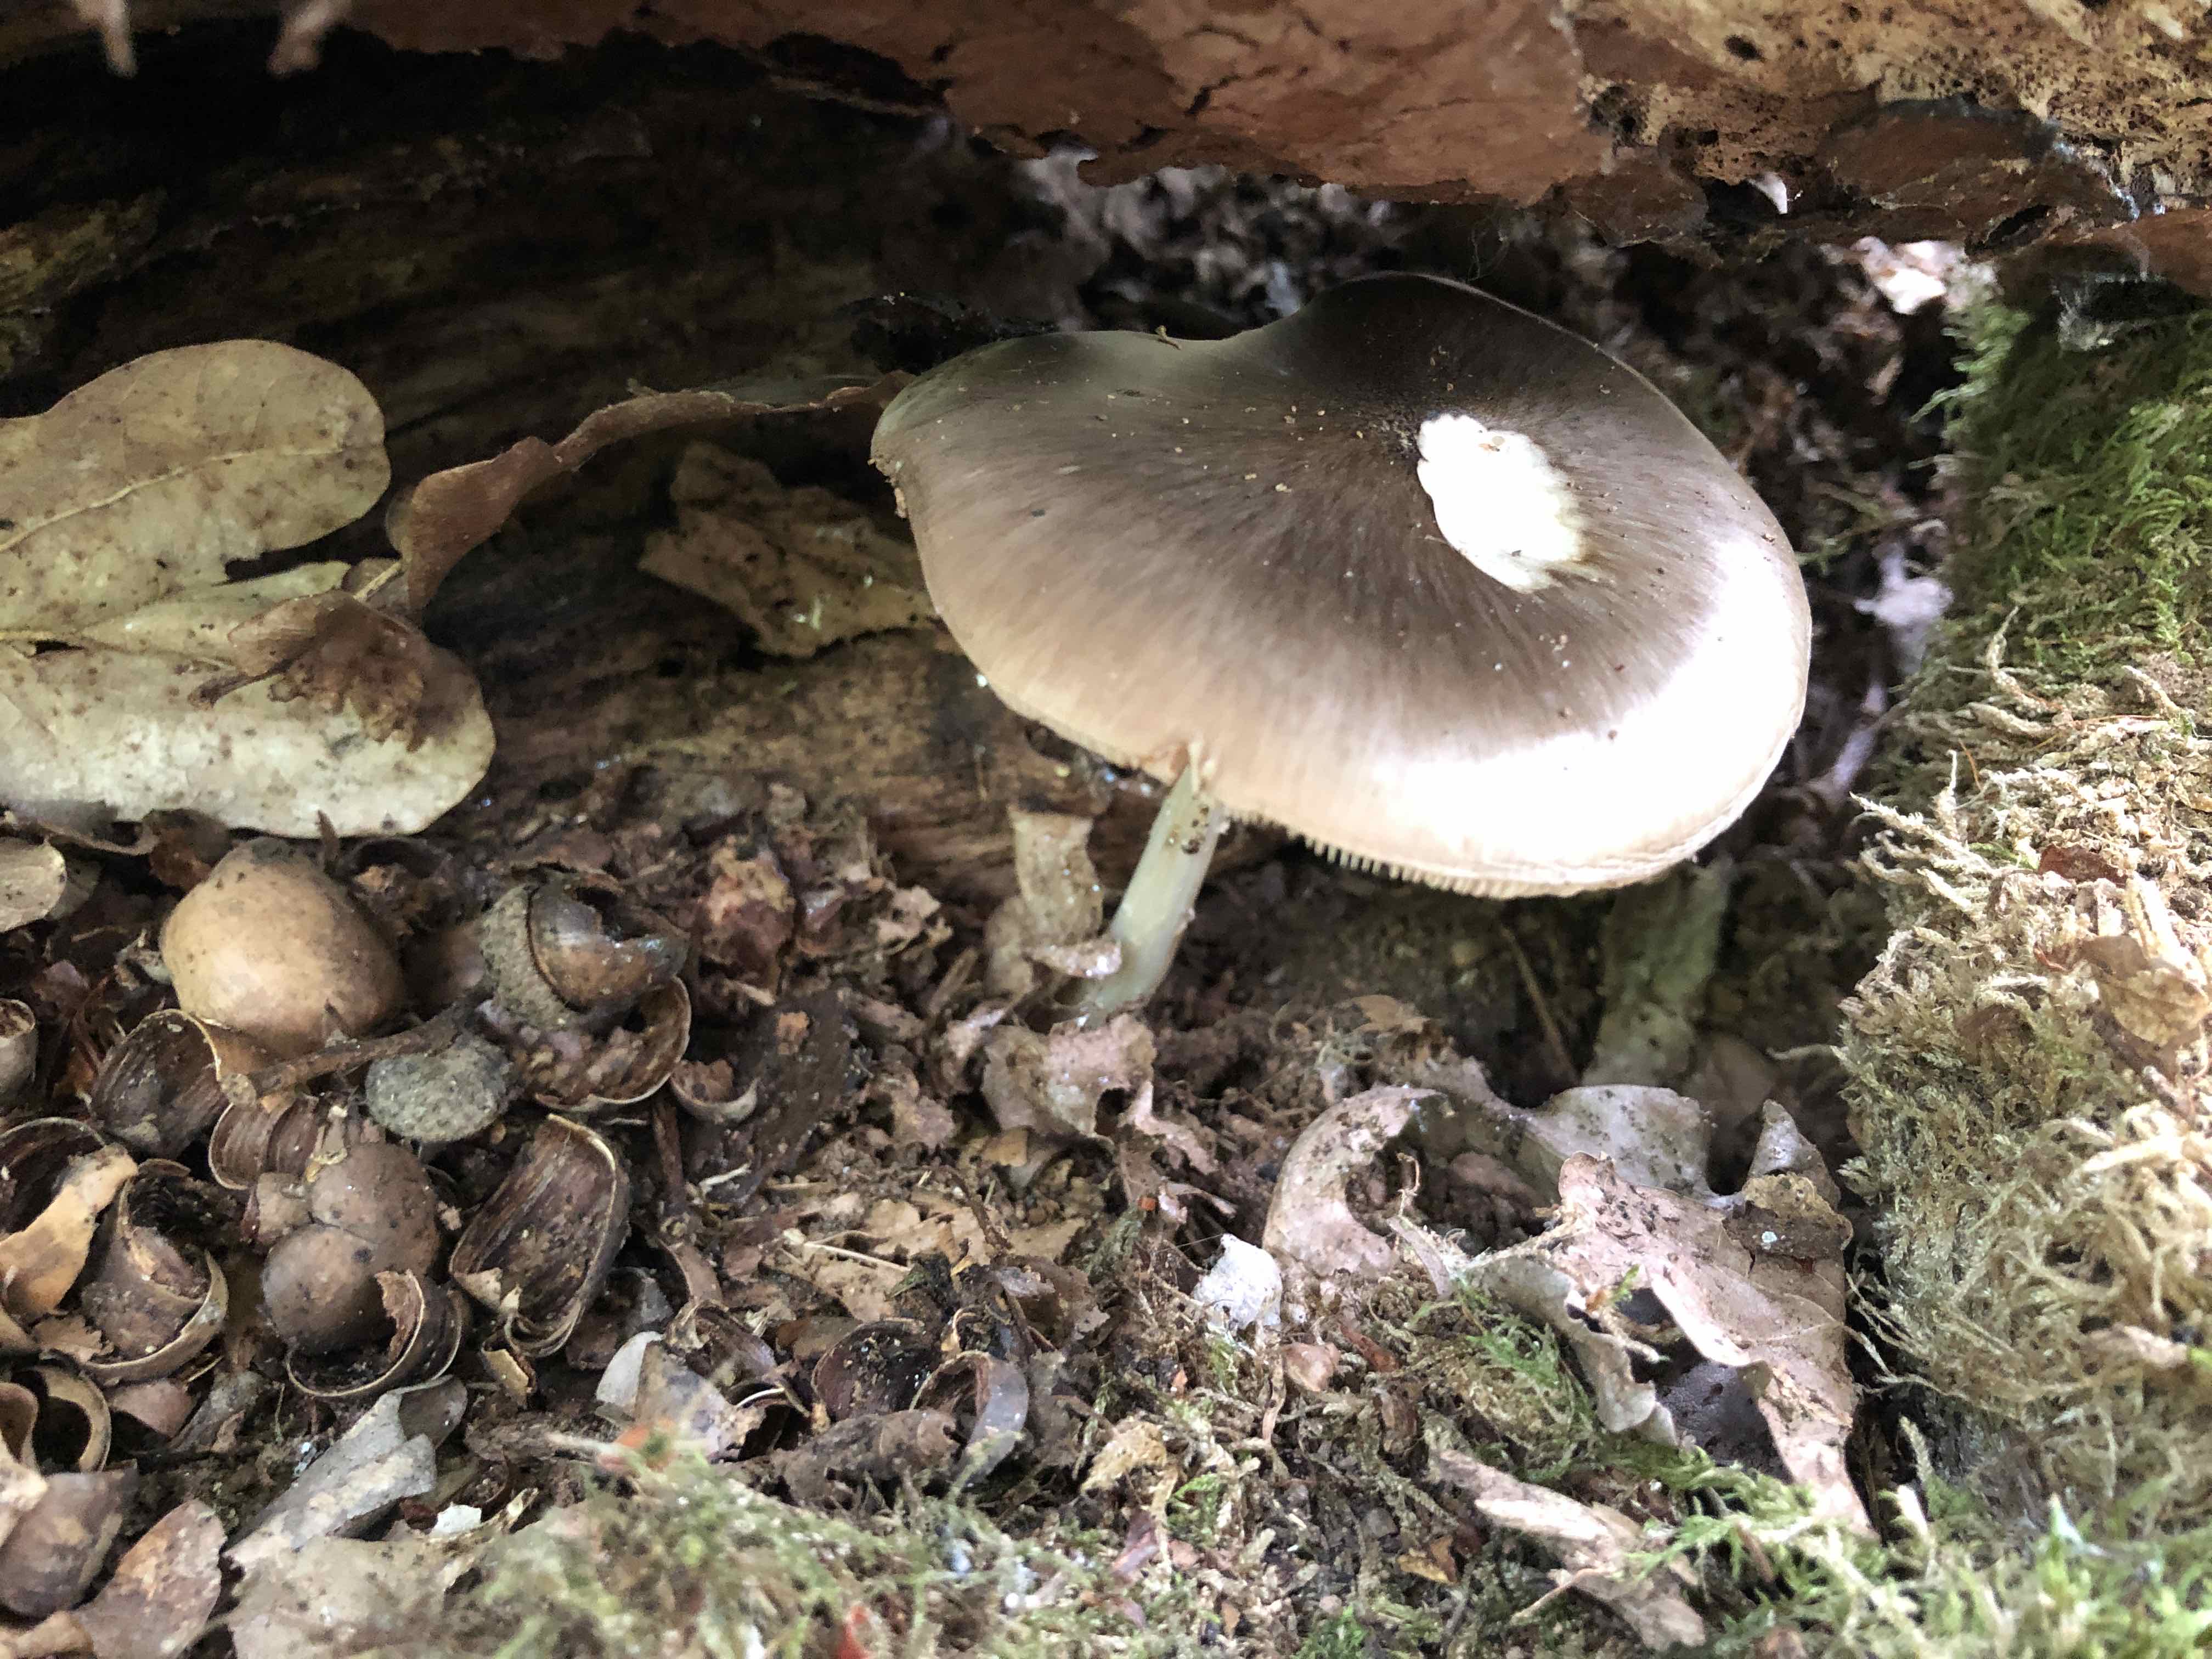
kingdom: Fungi
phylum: Basidiomycota
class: Agaricomycetes
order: Agaricales
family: Pluteaceae
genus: Pluteus
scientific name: Pluteus cervinus
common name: sodfarvet skærmhat
